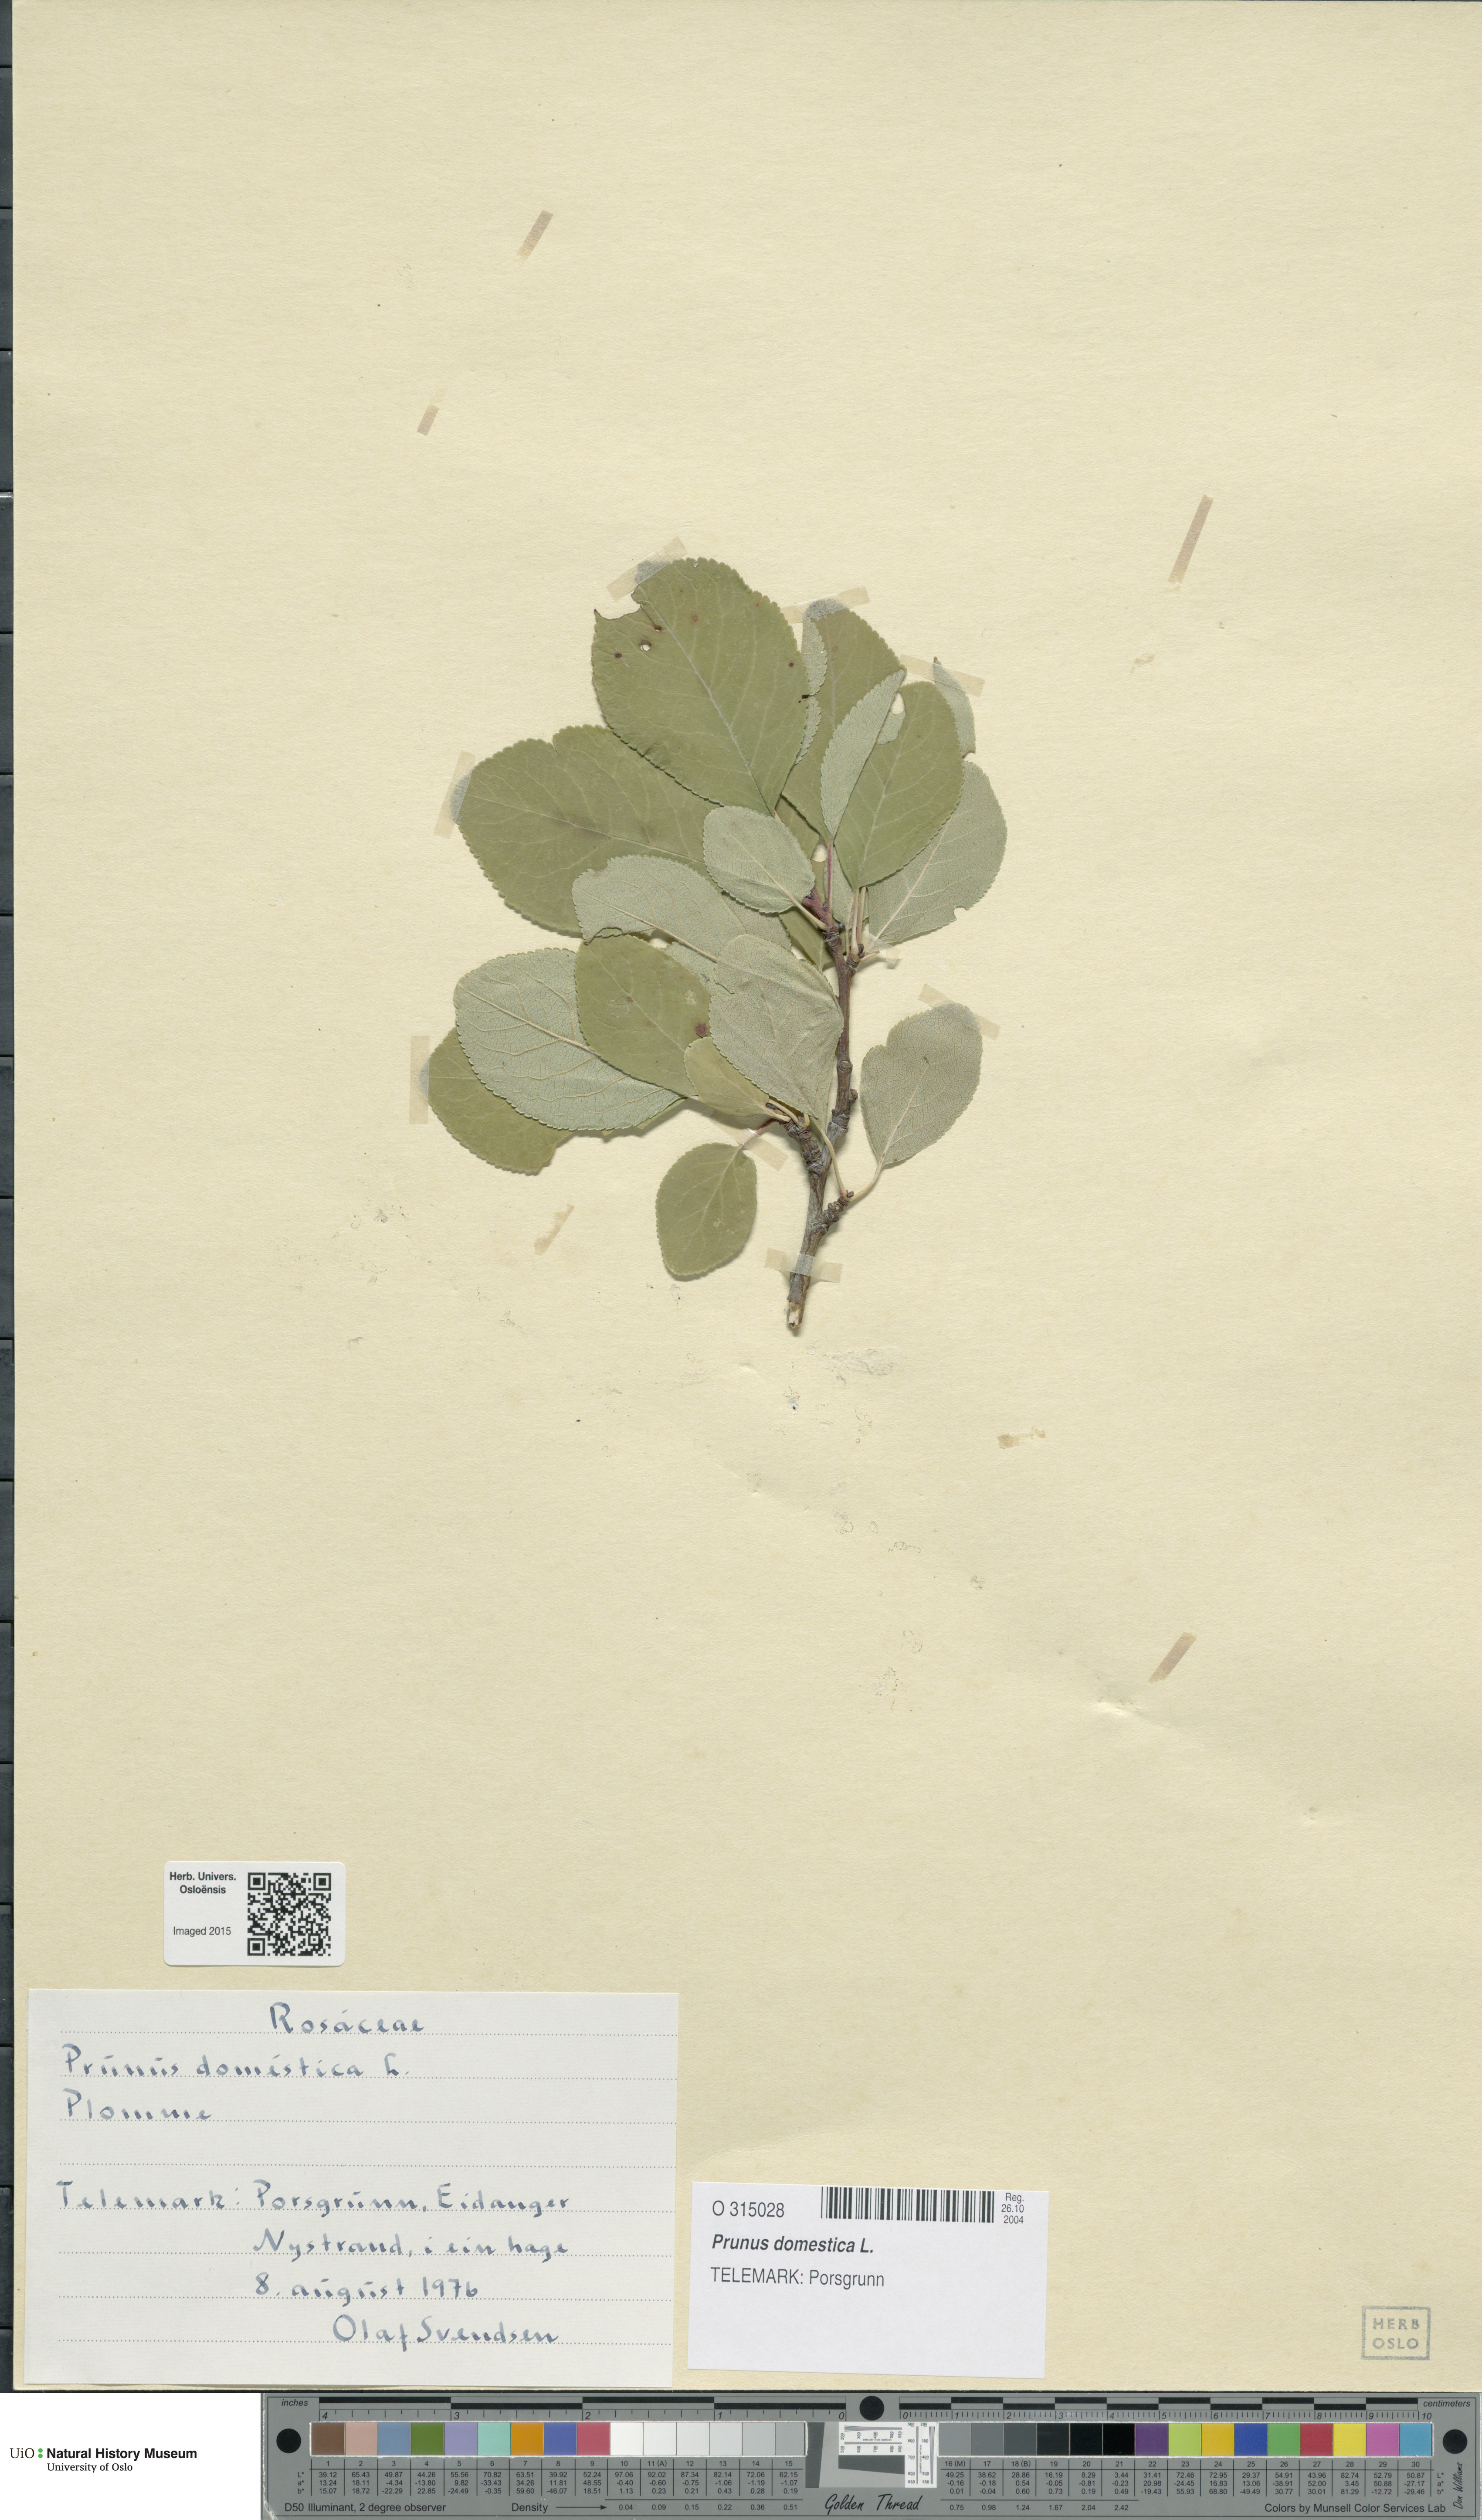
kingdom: Plantae
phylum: Tracheophyta
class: Magnoliopsida
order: Rosales
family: Rosaceae
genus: Prunus
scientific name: Prunus domestica
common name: Wild plum
